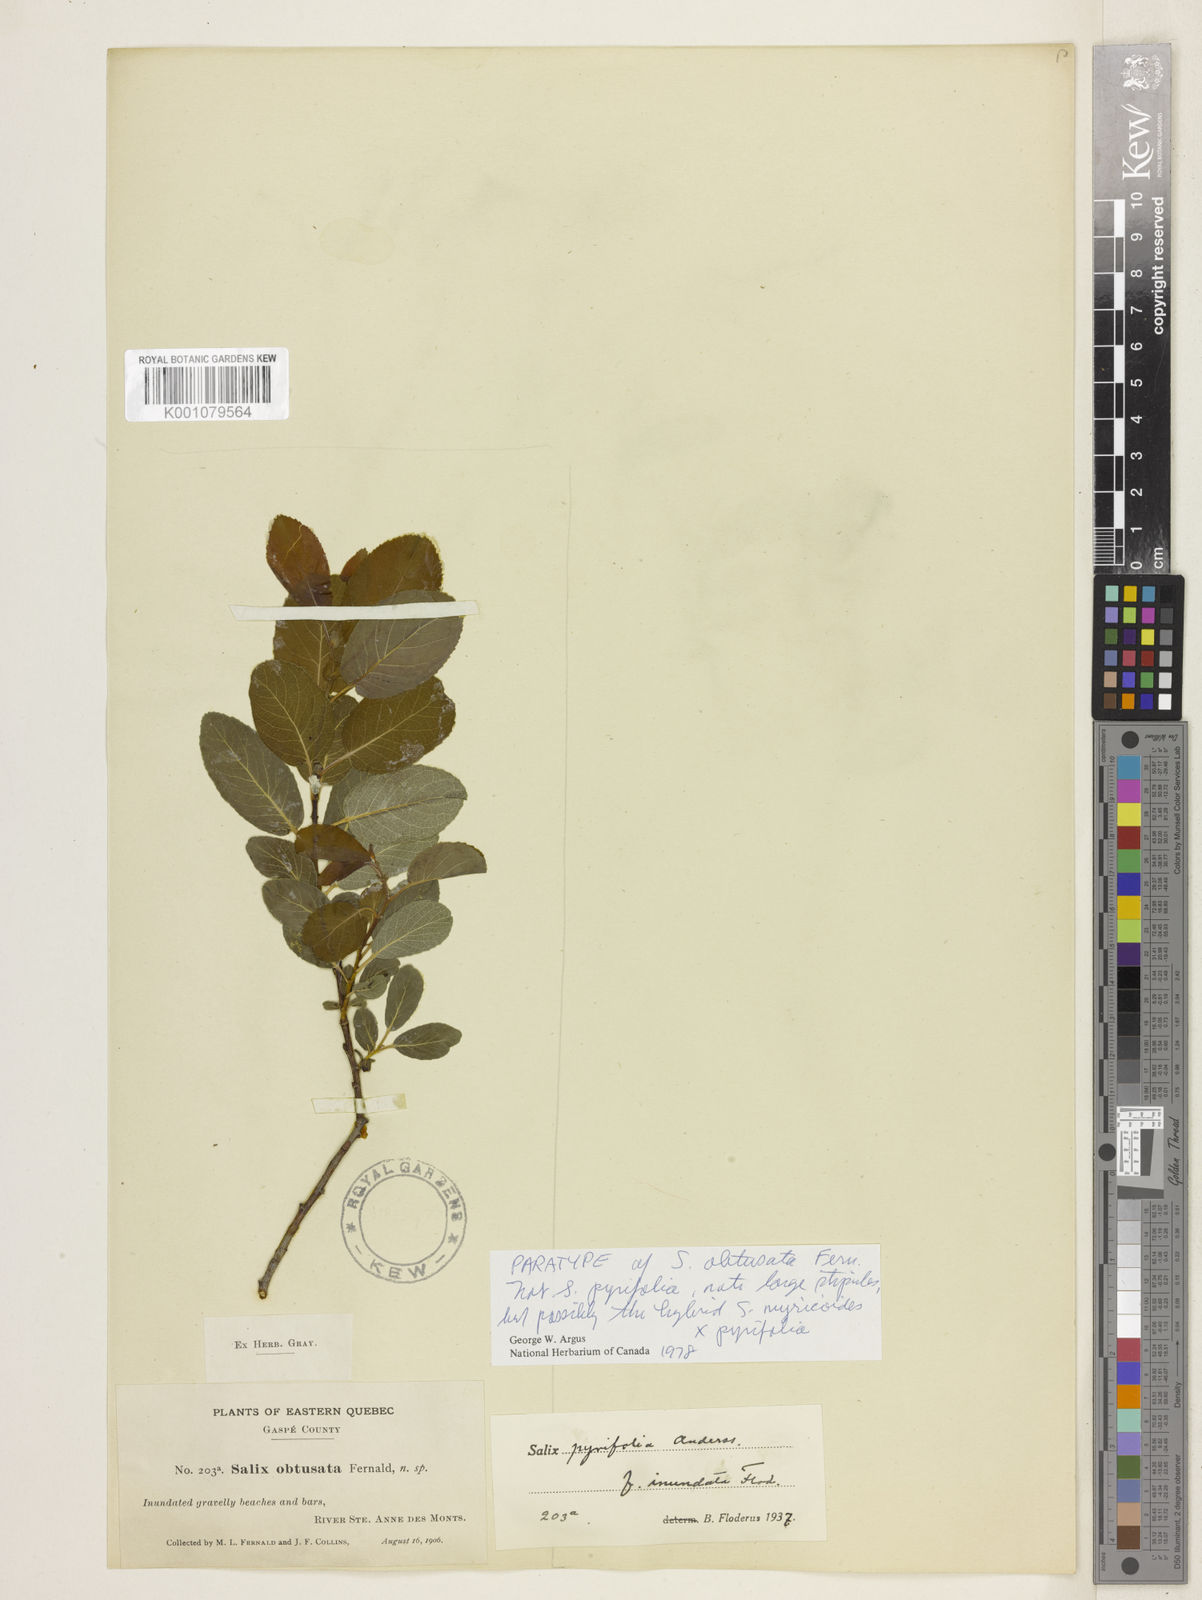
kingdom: Plantae
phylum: Tracheophyta
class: Magnoliopsida
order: Malpighiales
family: Salicaceae
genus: Salix
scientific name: Salix
